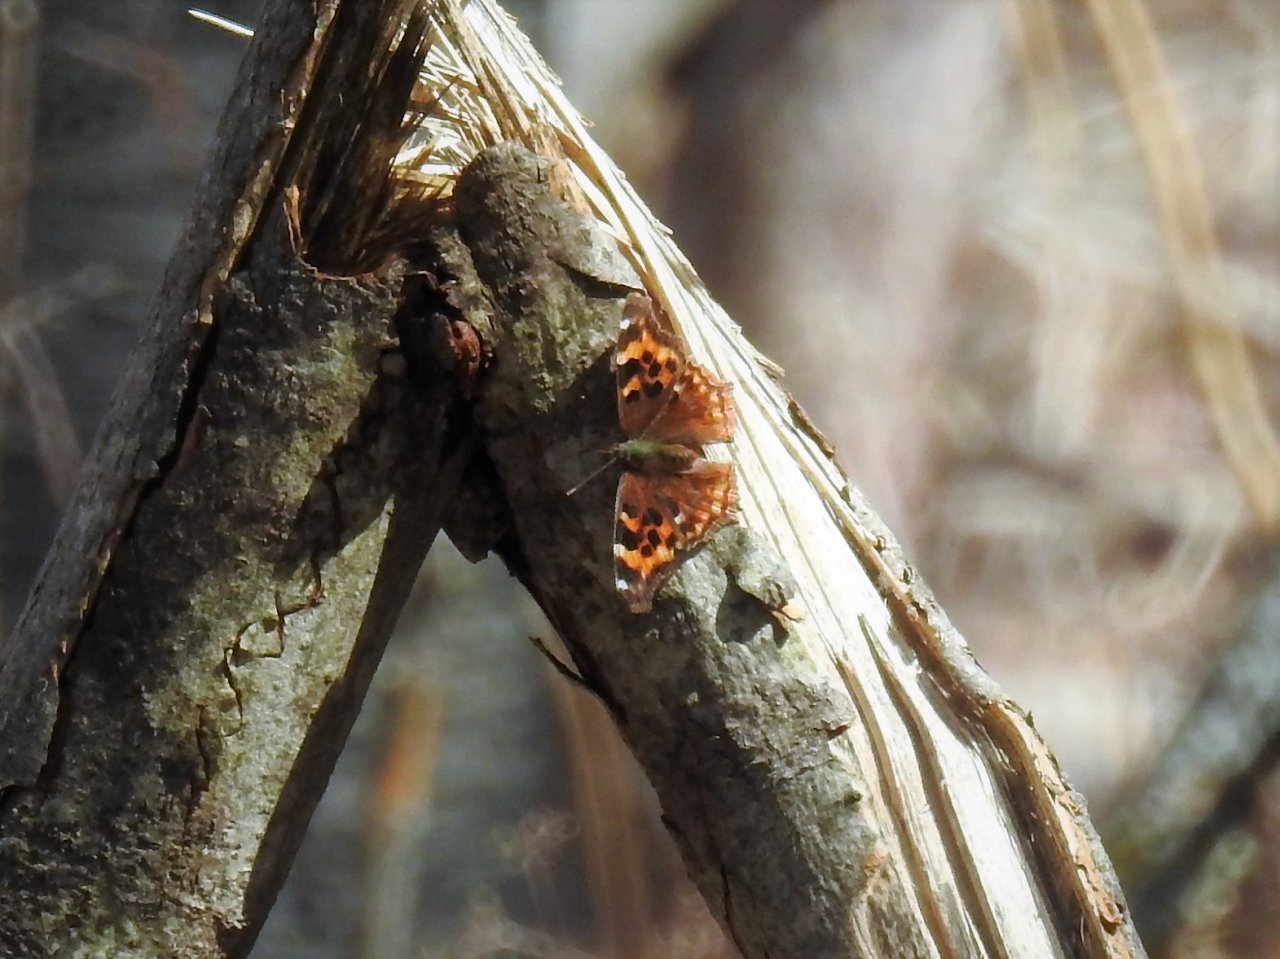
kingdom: Animalia
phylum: Arthropoda
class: Insecta
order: Lepidoptera
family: Nymphalidae
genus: Polygonia
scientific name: Polygonia vaualbum
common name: Compton Tortoiseshell
